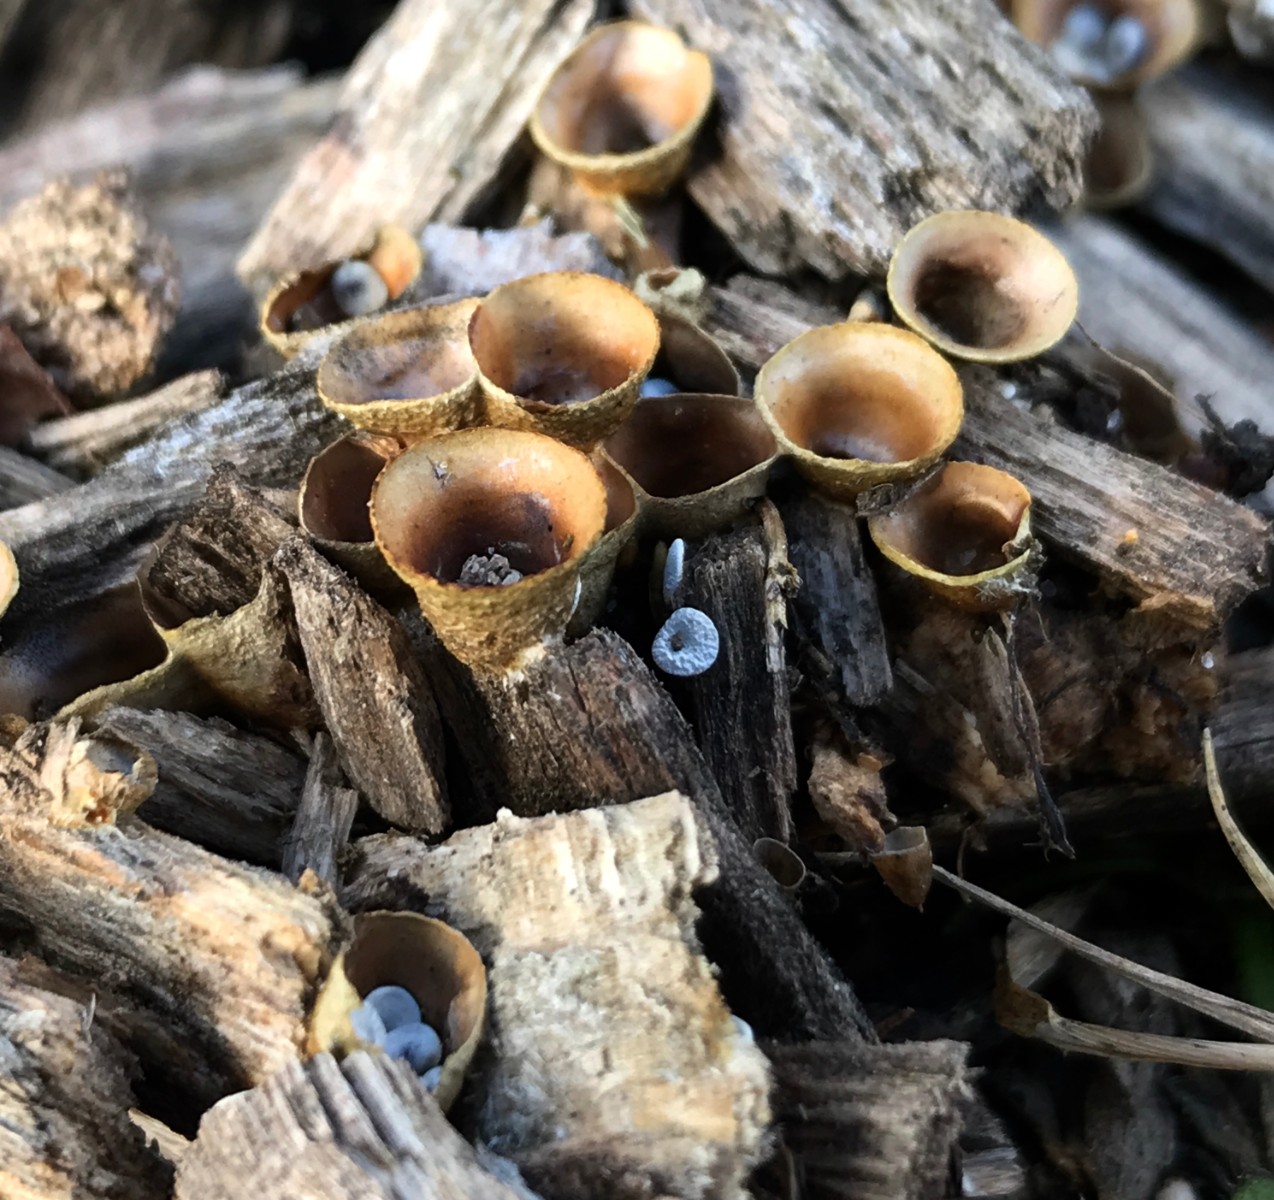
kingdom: Fungi
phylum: Basidiomycota
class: Agaricomycetes
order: Agaricales
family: Nidulariaceae
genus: Crucibulum
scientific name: Crucibulum crucibuliforme
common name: krukkesvamp
